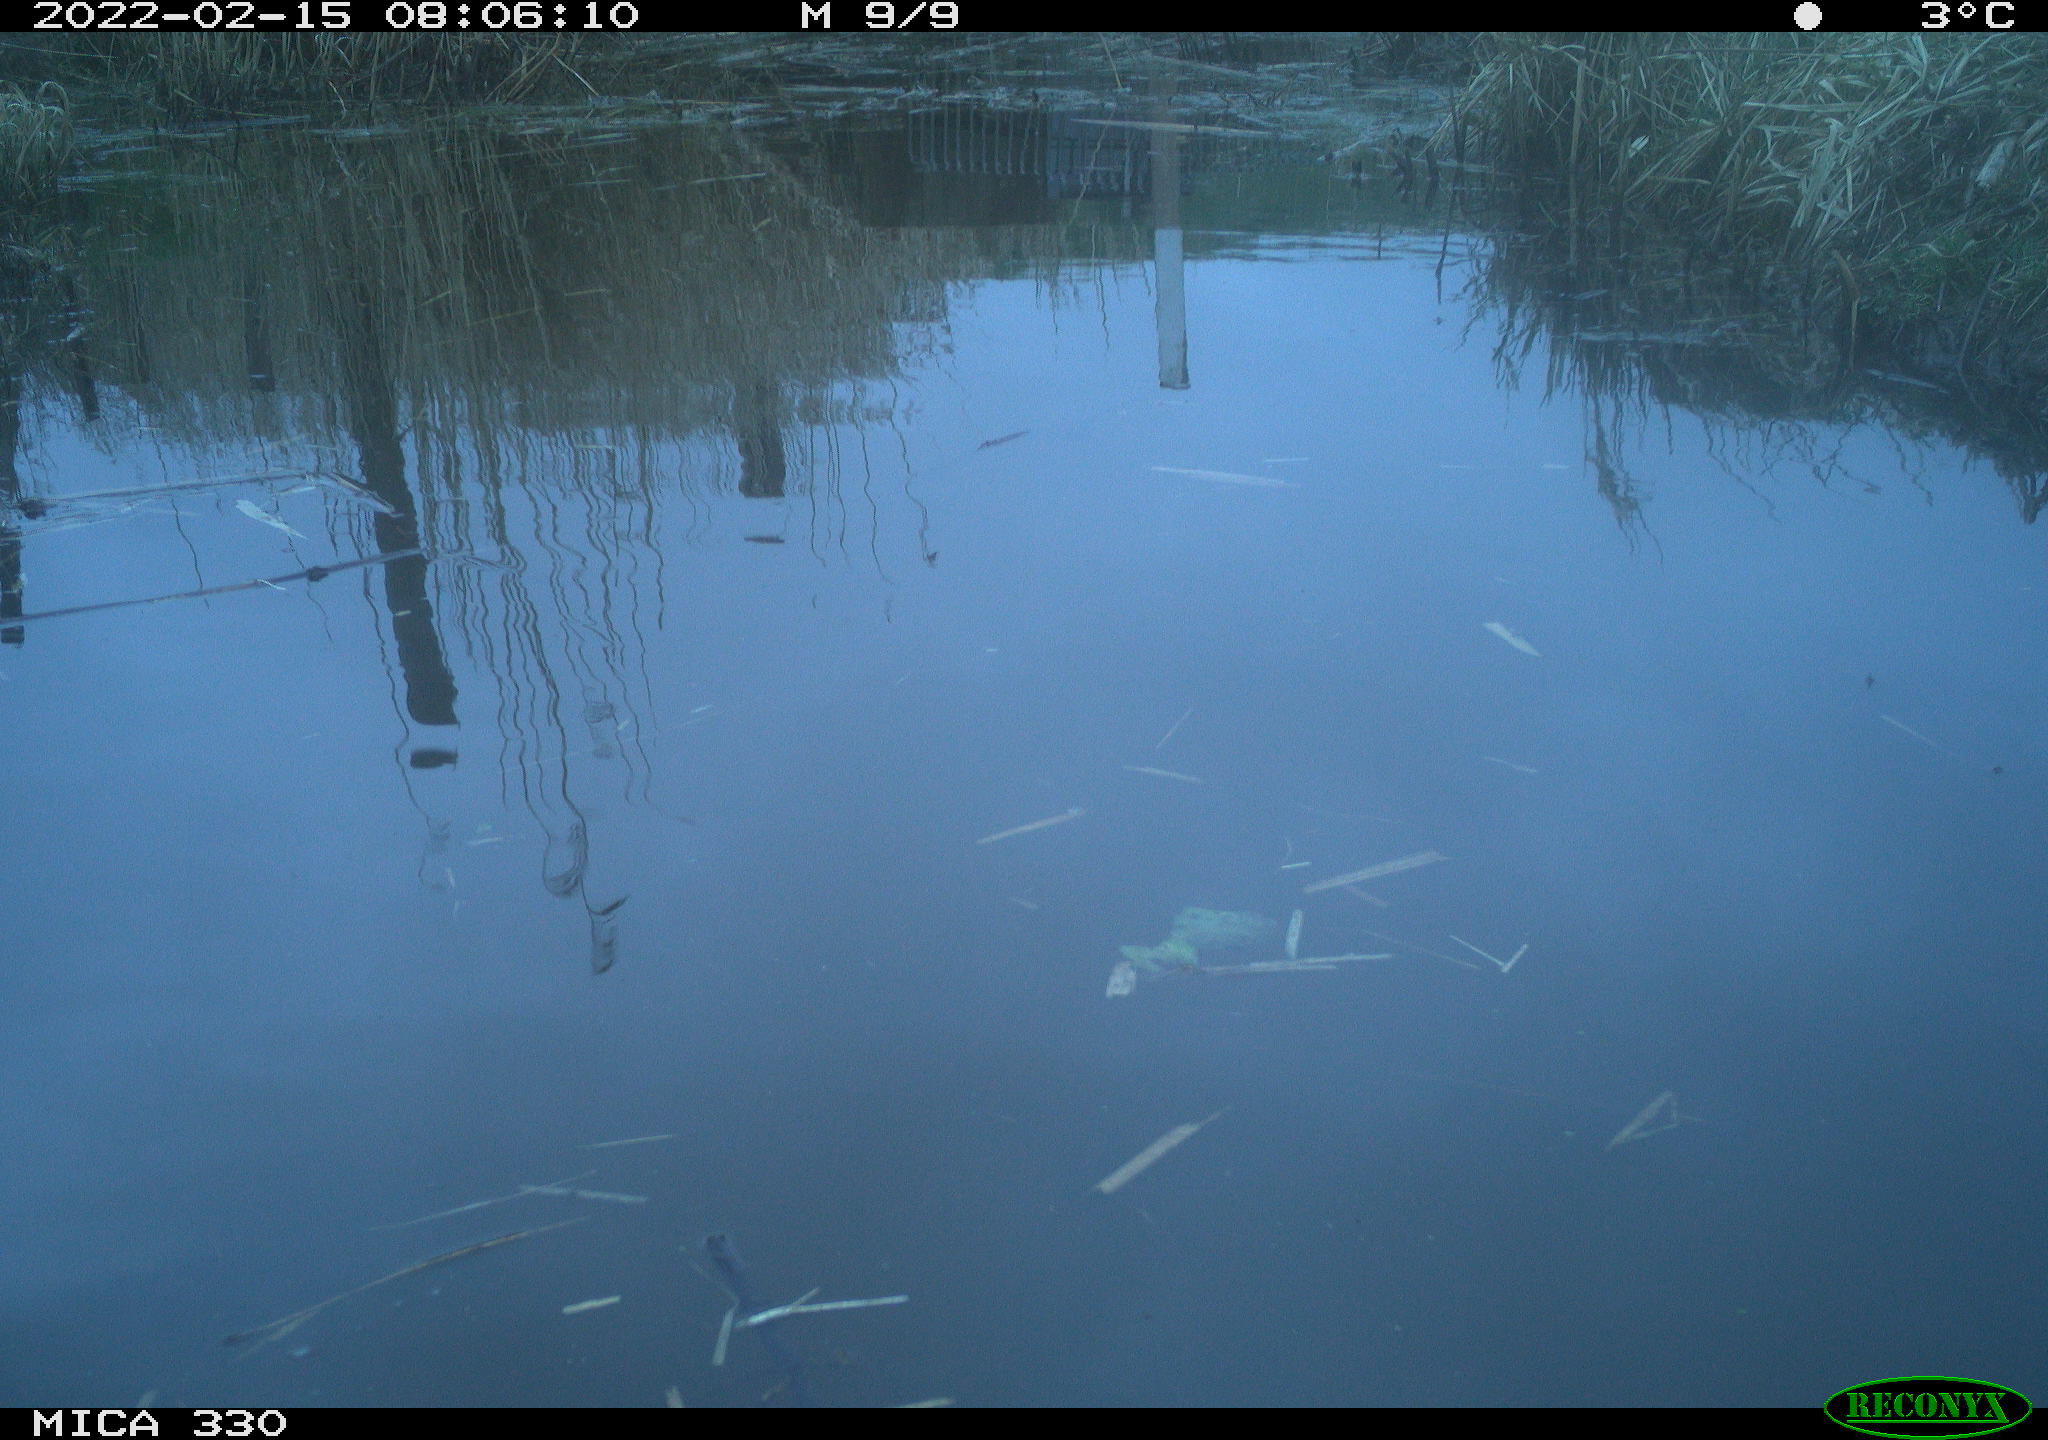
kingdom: Animalia
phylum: Chordata
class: Aves
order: Gruiformes
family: Rallidae
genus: Gallinula
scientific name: Gallinula chloropus
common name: Common moorhen
